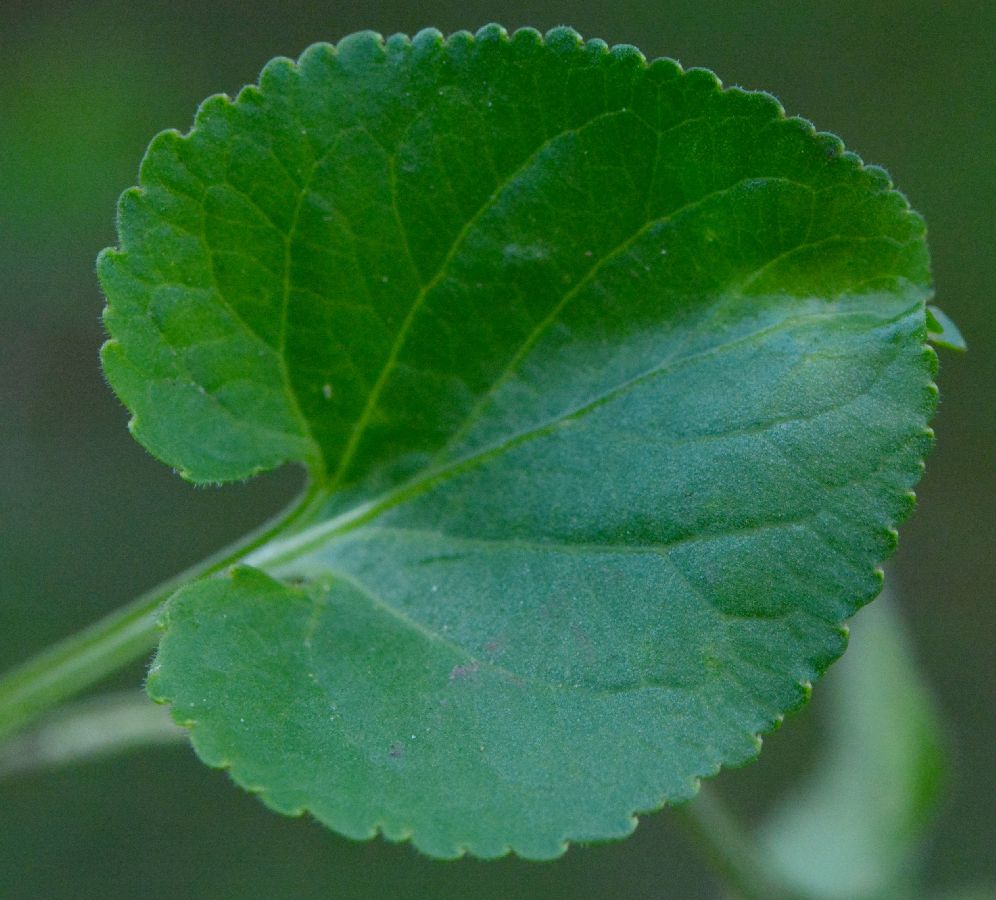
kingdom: Plantae
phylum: Tracheophyta
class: Magnoliopsida
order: Malpighiales
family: Violaceae
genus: Viola
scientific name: Viola suavis
